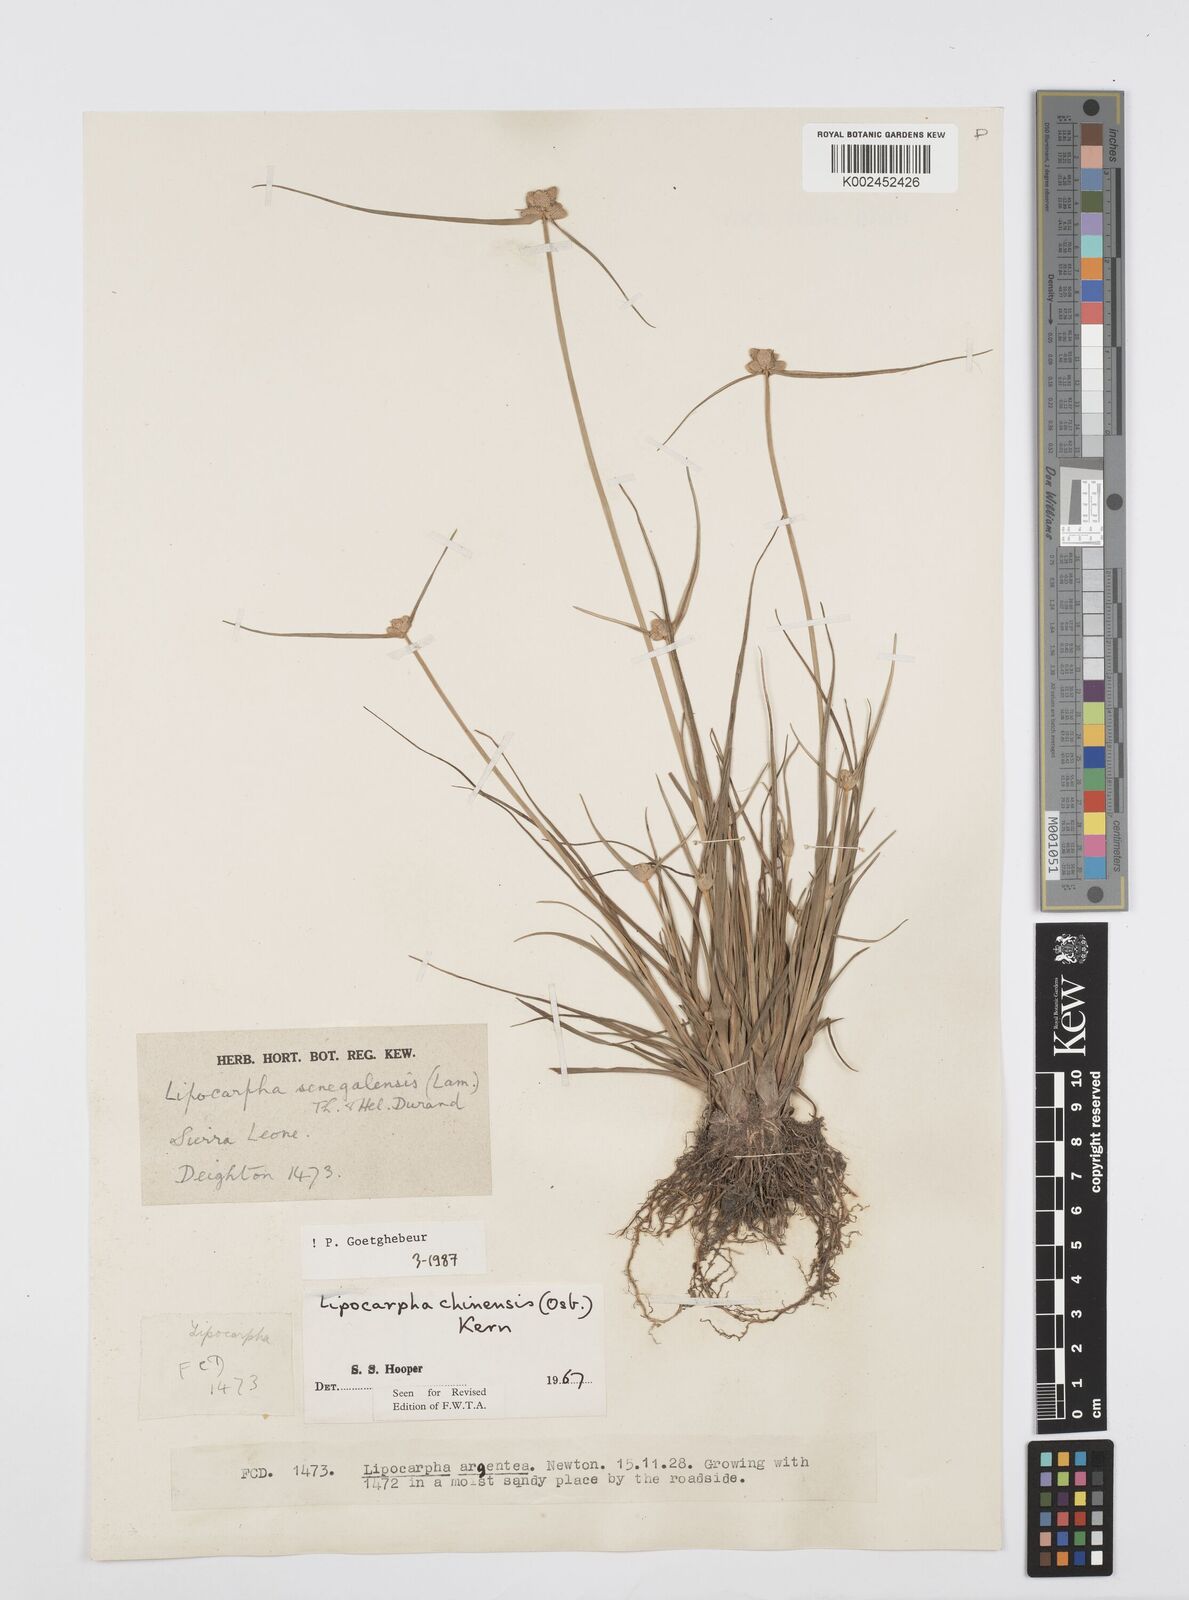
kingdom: Plantae
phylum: Tracheophyta
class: Liliopsida
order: Poales
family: Cyperaceae
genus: Cyperus
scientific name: Cyperus albescens
